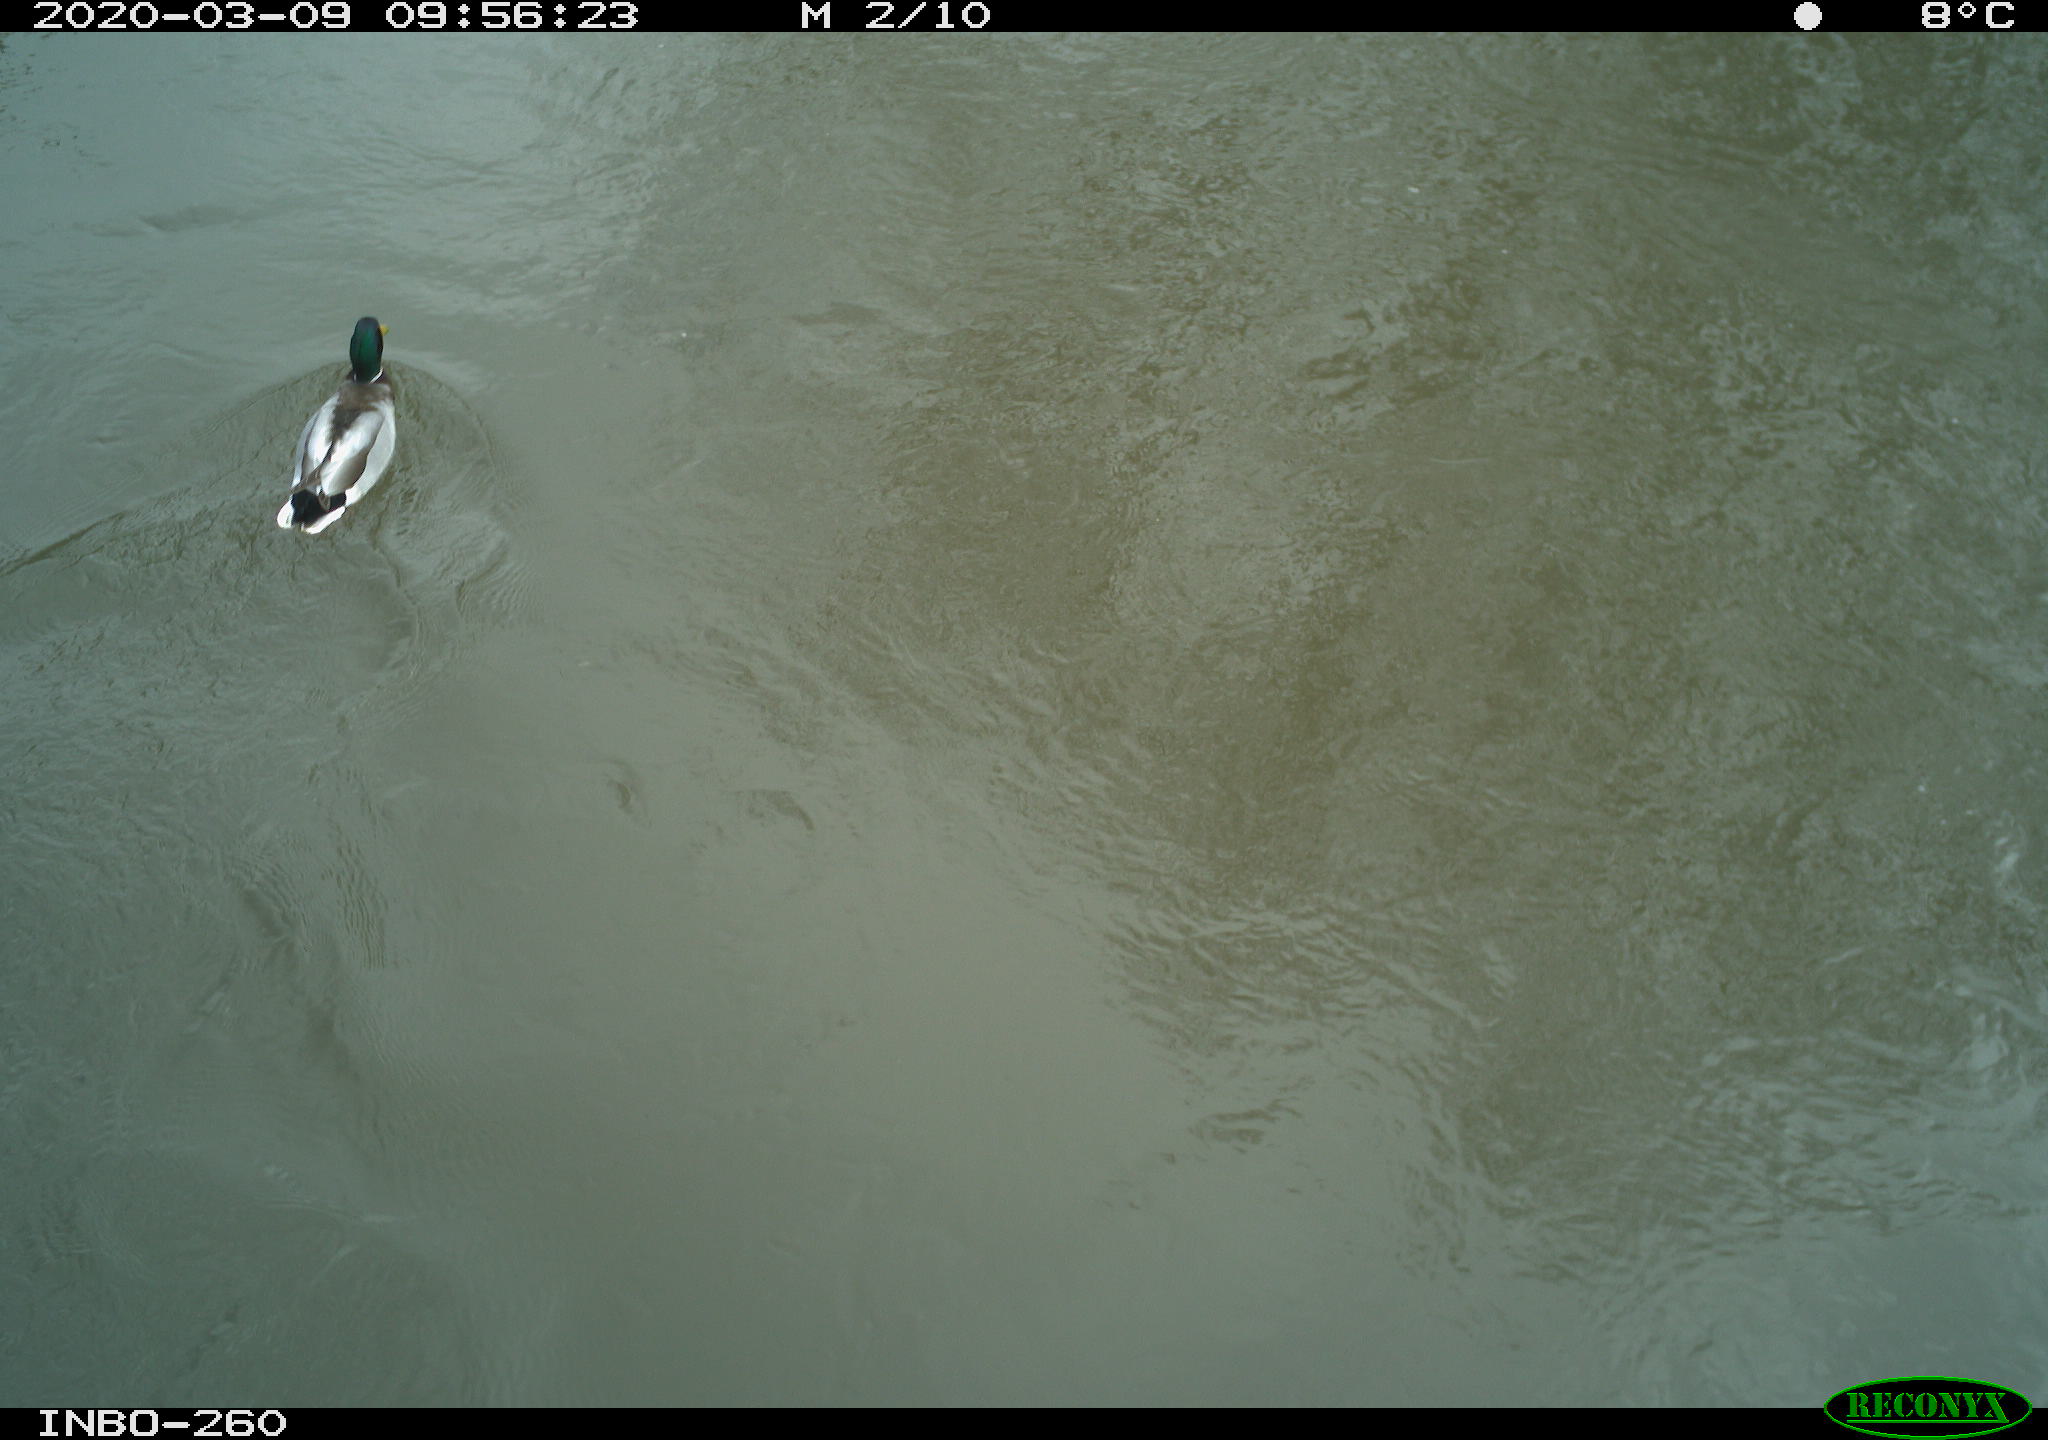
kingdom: Animalia
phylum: Chordata
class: Aves
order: Anseriformes
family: Anatidae
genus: Anas
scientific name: Anas platyrhynchos
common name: Mallard
